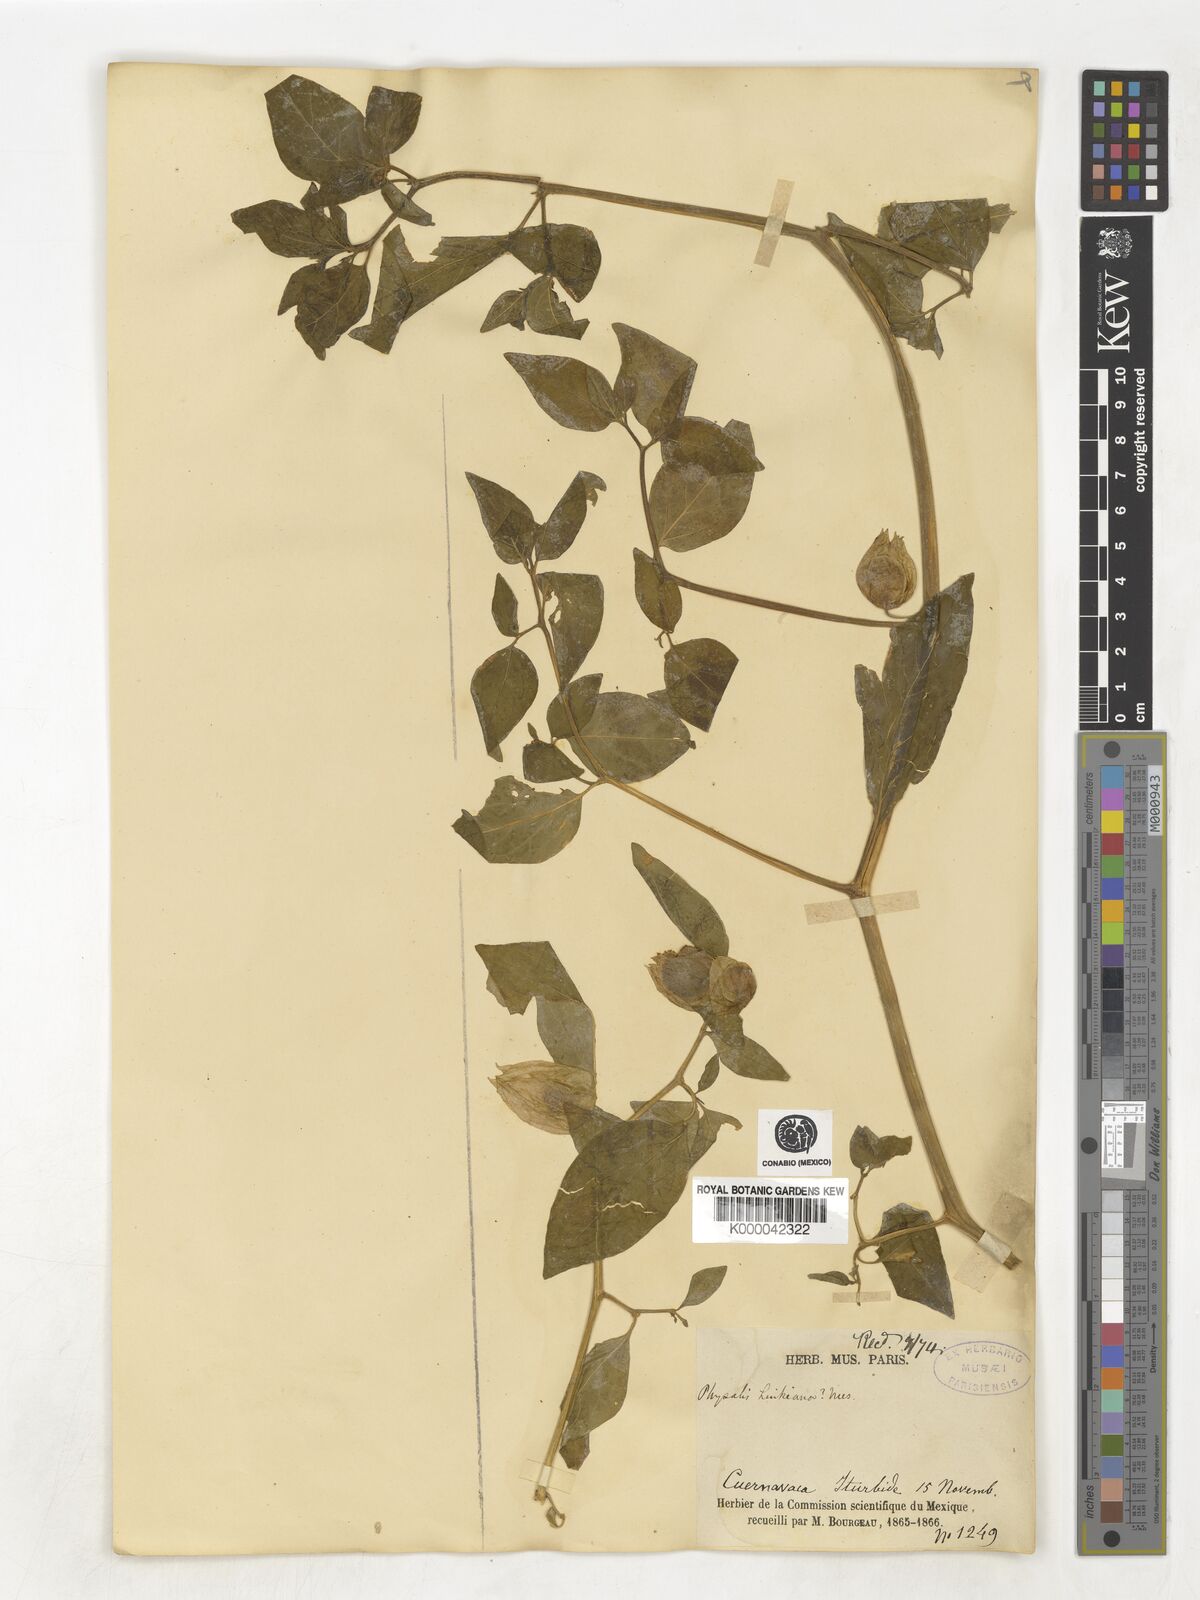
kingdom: Plantae
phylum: Tracheophyta
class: Magnoliopsida
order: Solanales
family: Solanaceae
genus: Physalis
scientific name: Physalis
